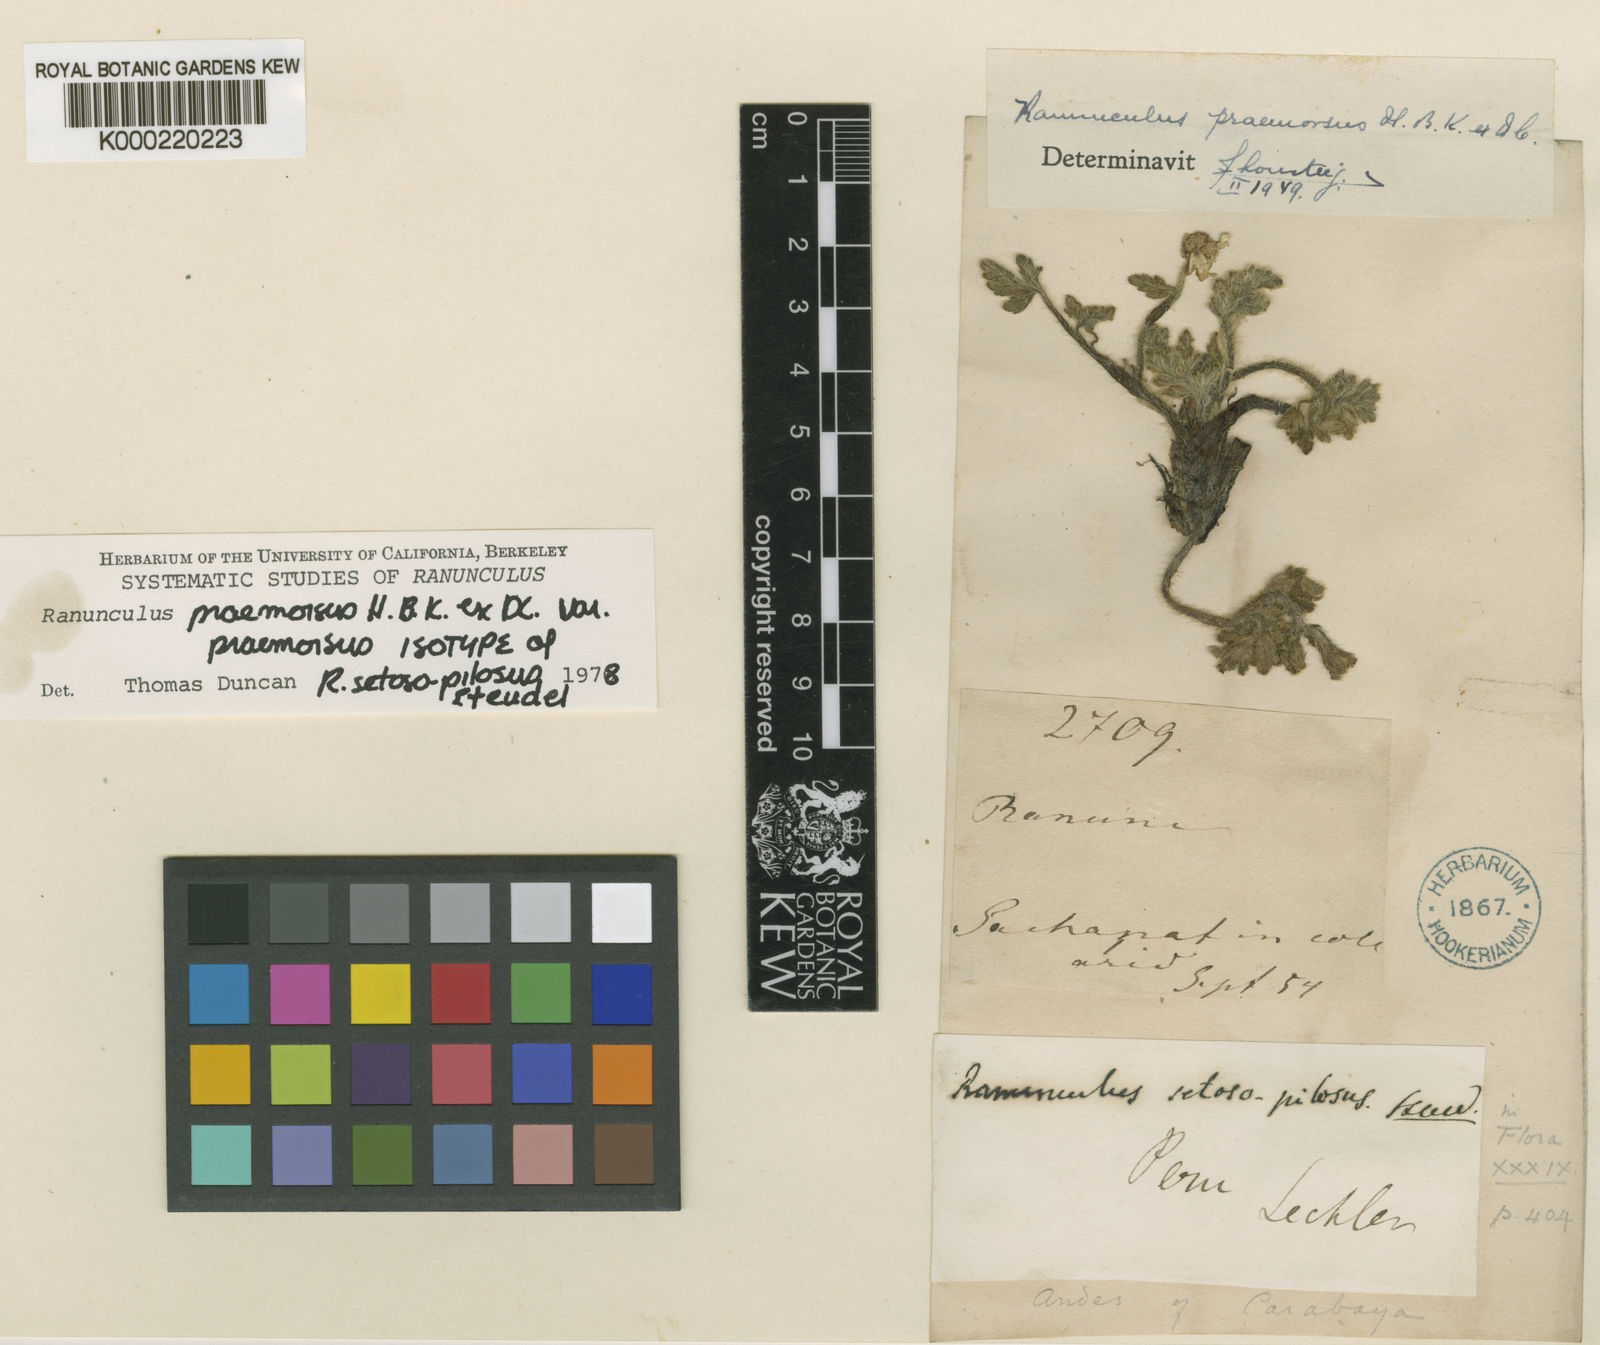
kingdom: Plantae
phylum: Tracheophyta
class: Magnoliopsida
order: Ranunculales
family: Ranunculaceae
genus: Ranunculus
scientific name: Ranunculus praemorsus
